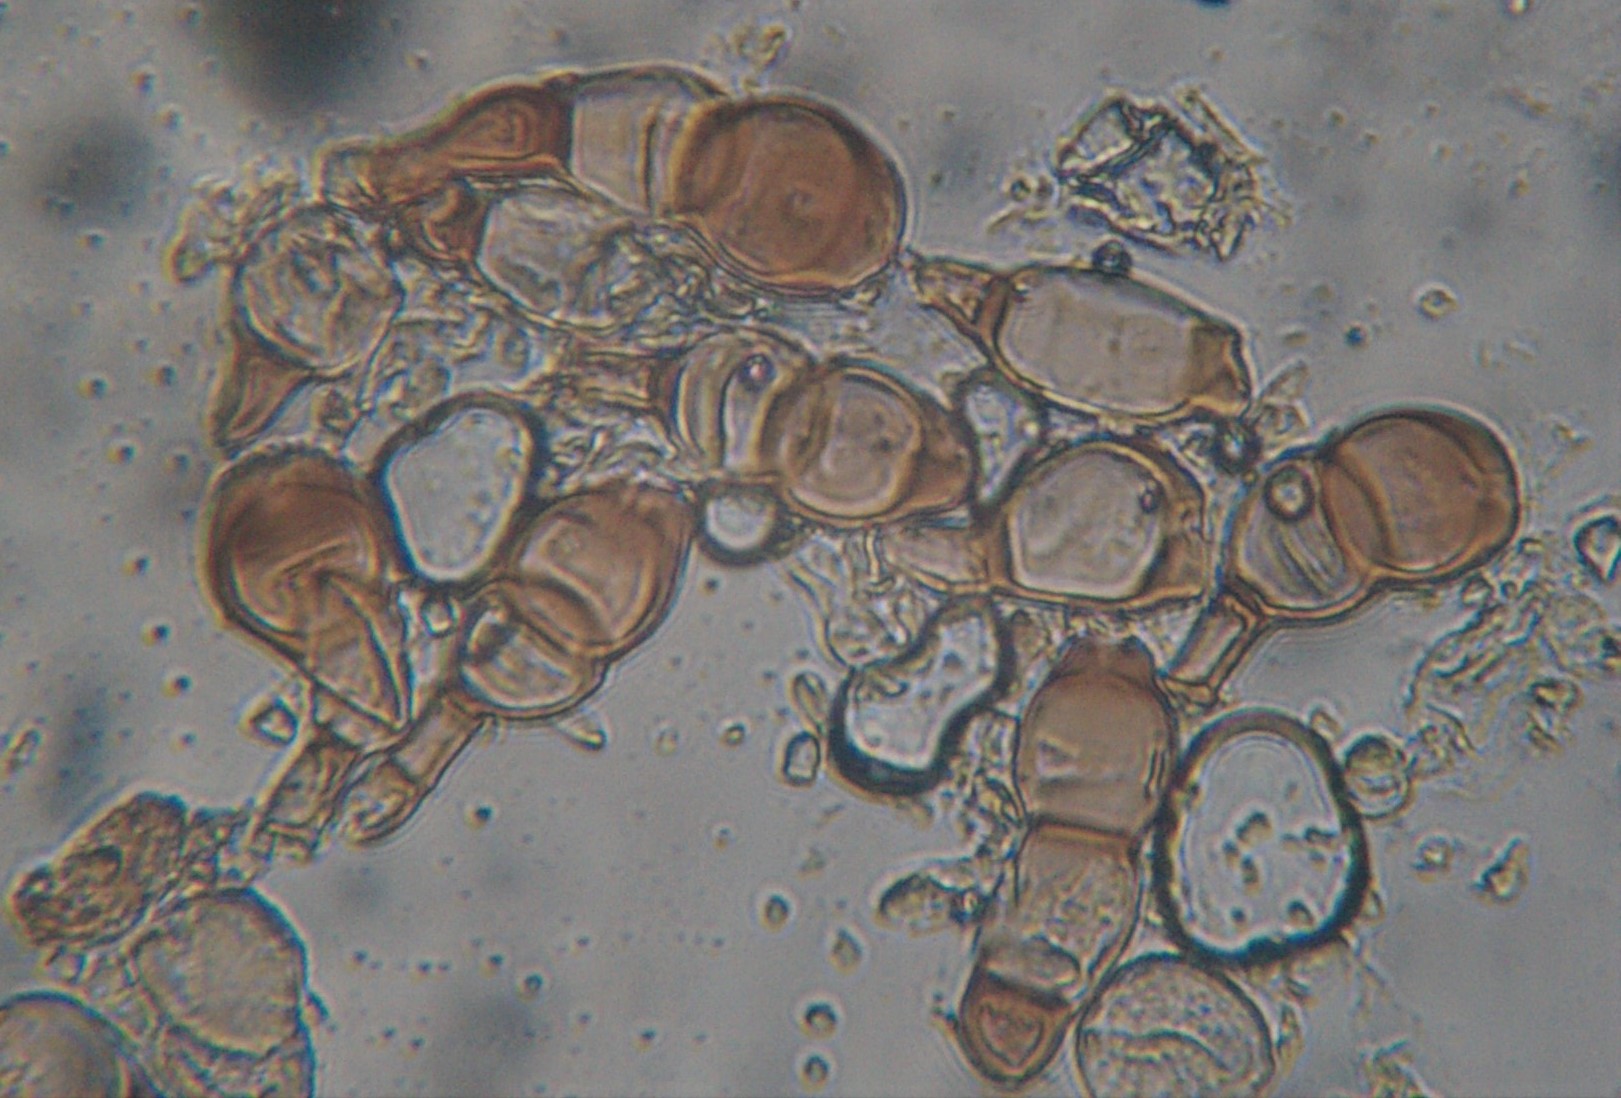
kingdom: Fungi
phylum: Basidiomycota
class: Pucciniomycetes
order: Pucciniales
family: Pucciniaceae
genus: Puccinia
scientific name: Puccinia
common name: tvecellerust
